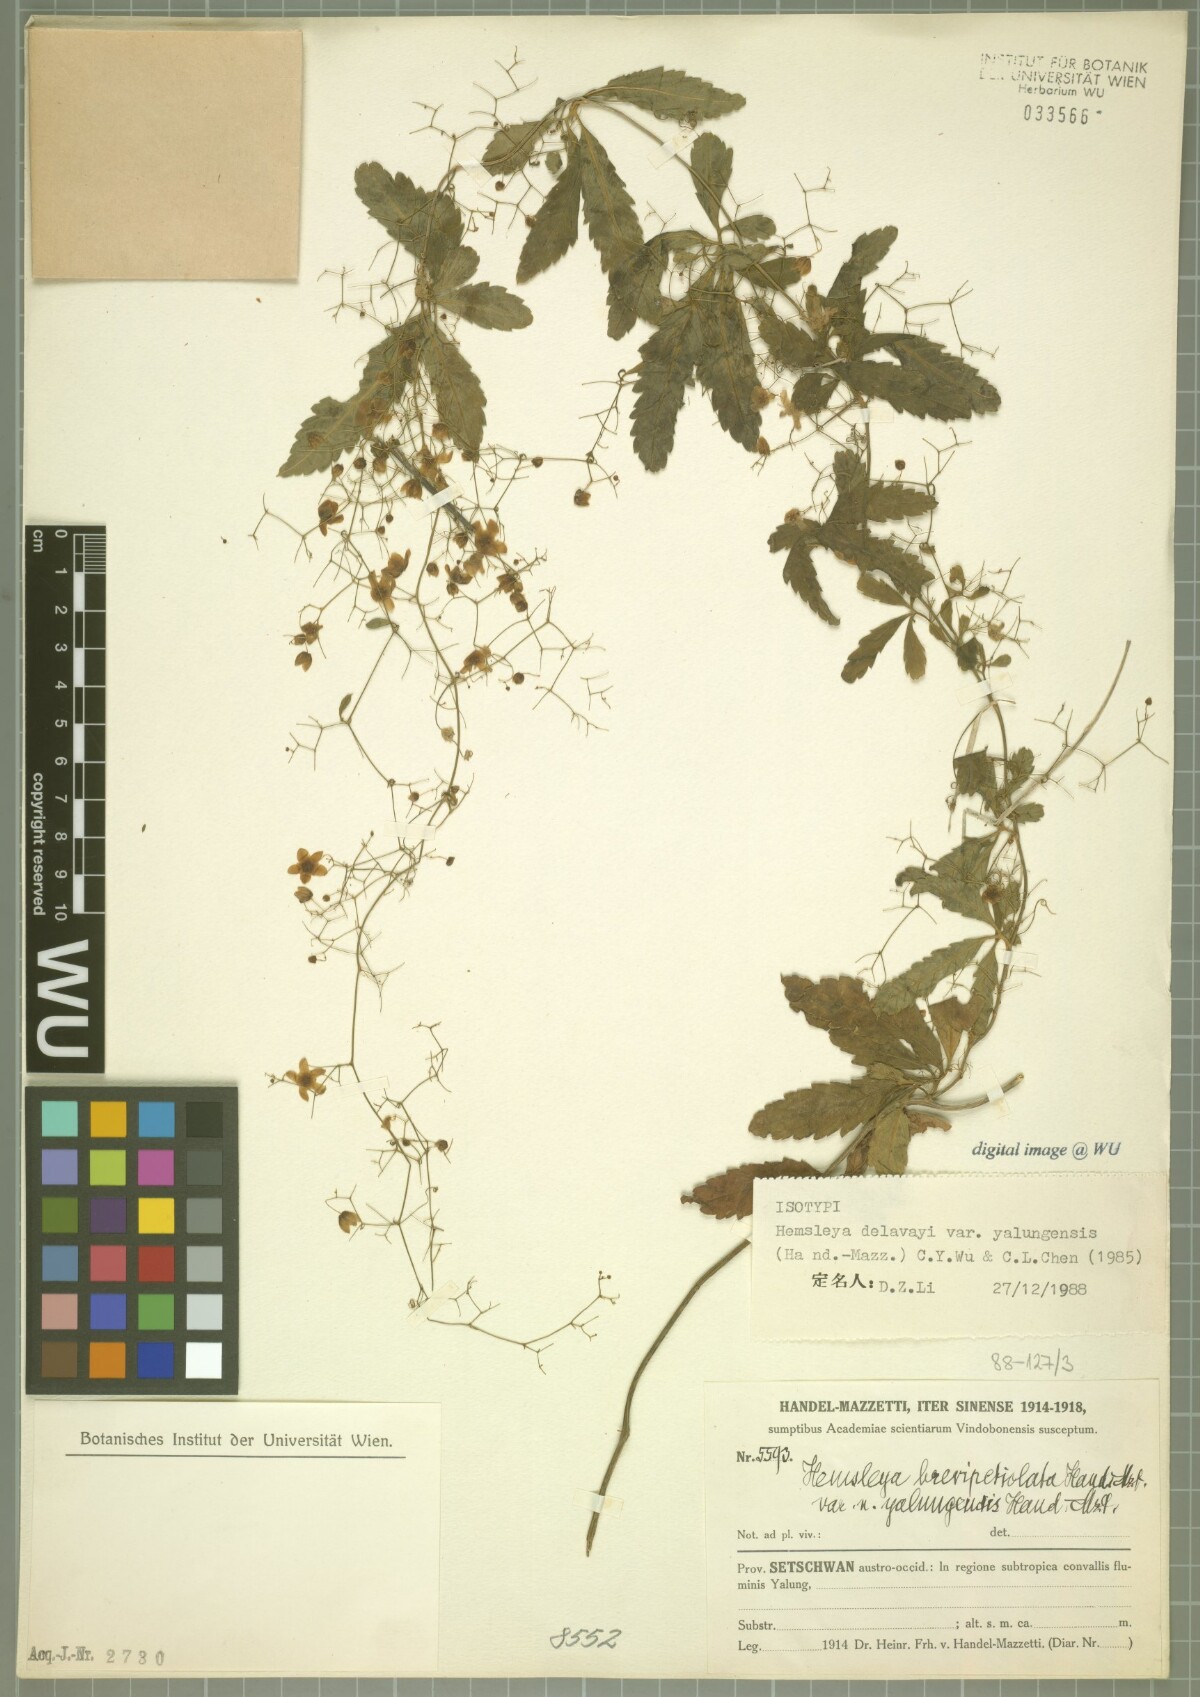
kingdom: Plantae
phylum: Tracheophyta
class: Magnoliopsida
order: Cucurbitales
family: Cucurbitaceae
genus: Hemsleya
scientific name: Hemsleya delavayi
